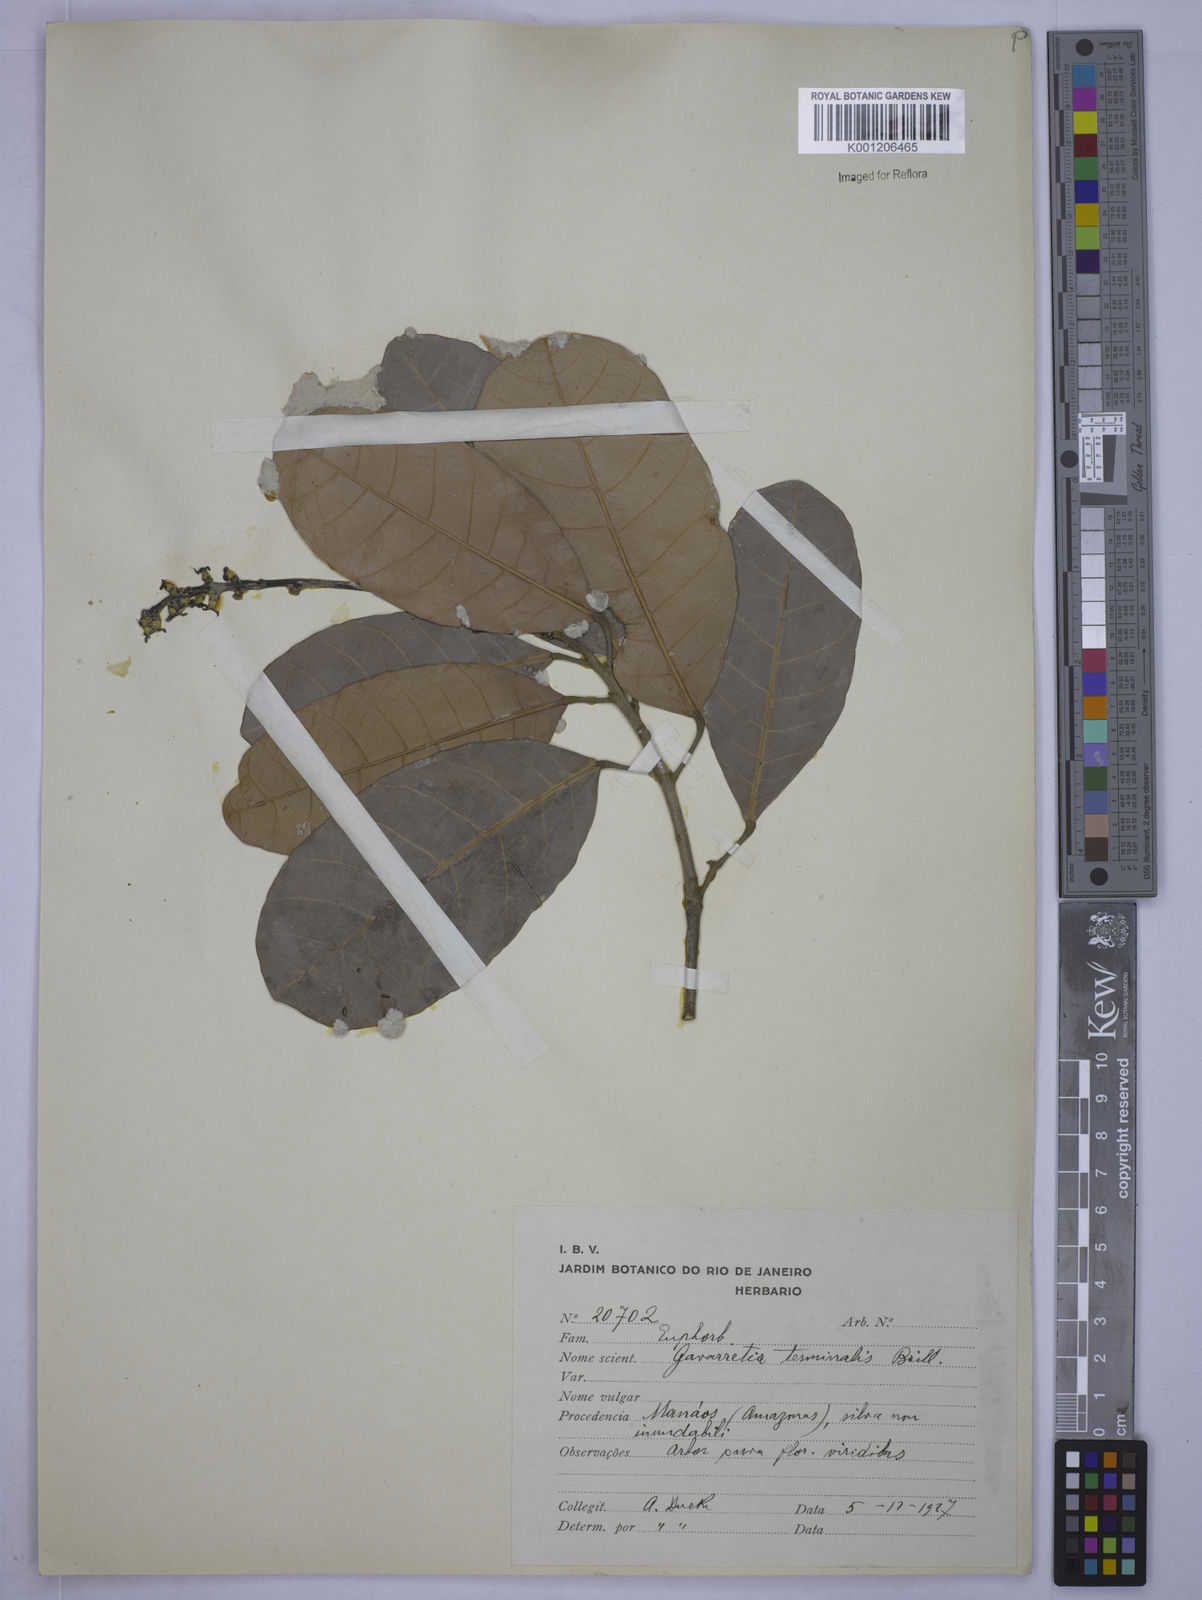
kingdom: Plantae
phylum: Tracheophyta
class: Magnoliopsida
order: Malpighiales
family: Euphorbiaceae
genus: Conceveiba
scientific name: Conceveiba
